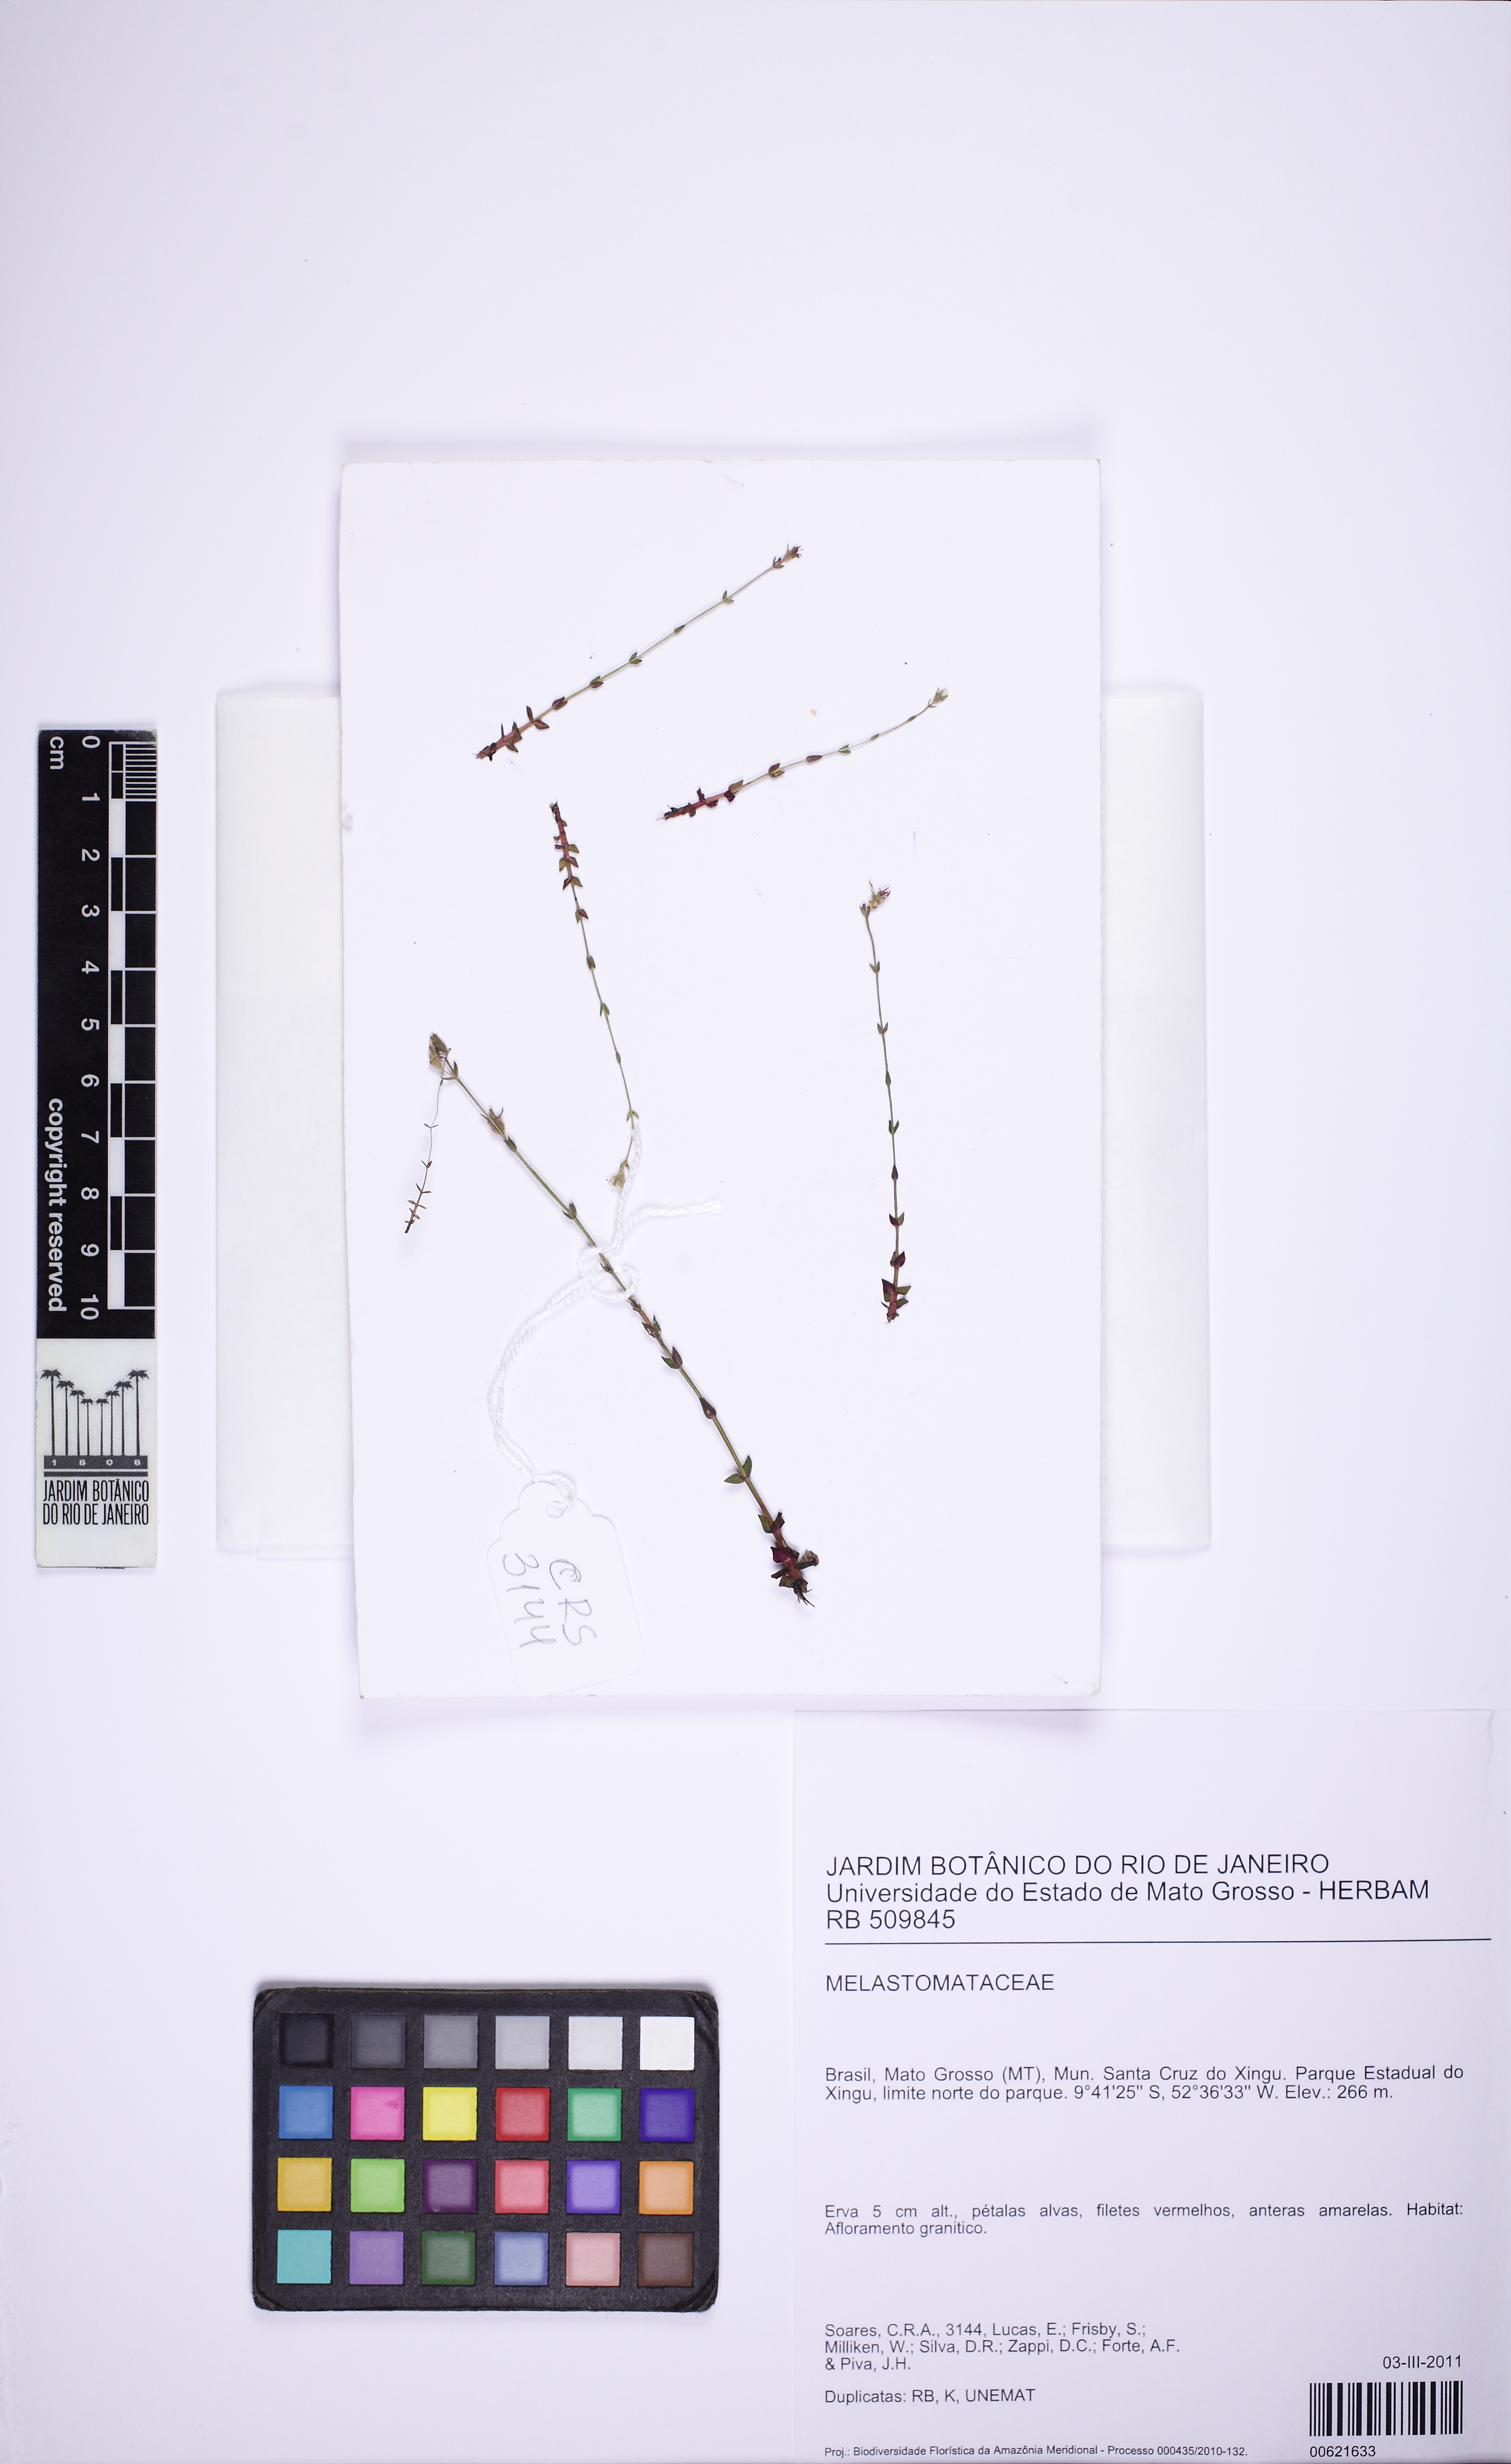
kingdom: Plantae
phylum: Tracheophyta
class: Magnoliopsida
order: Myrtales
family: Melastomataceae
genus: Noterophila
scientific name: Noterophila limnobios
